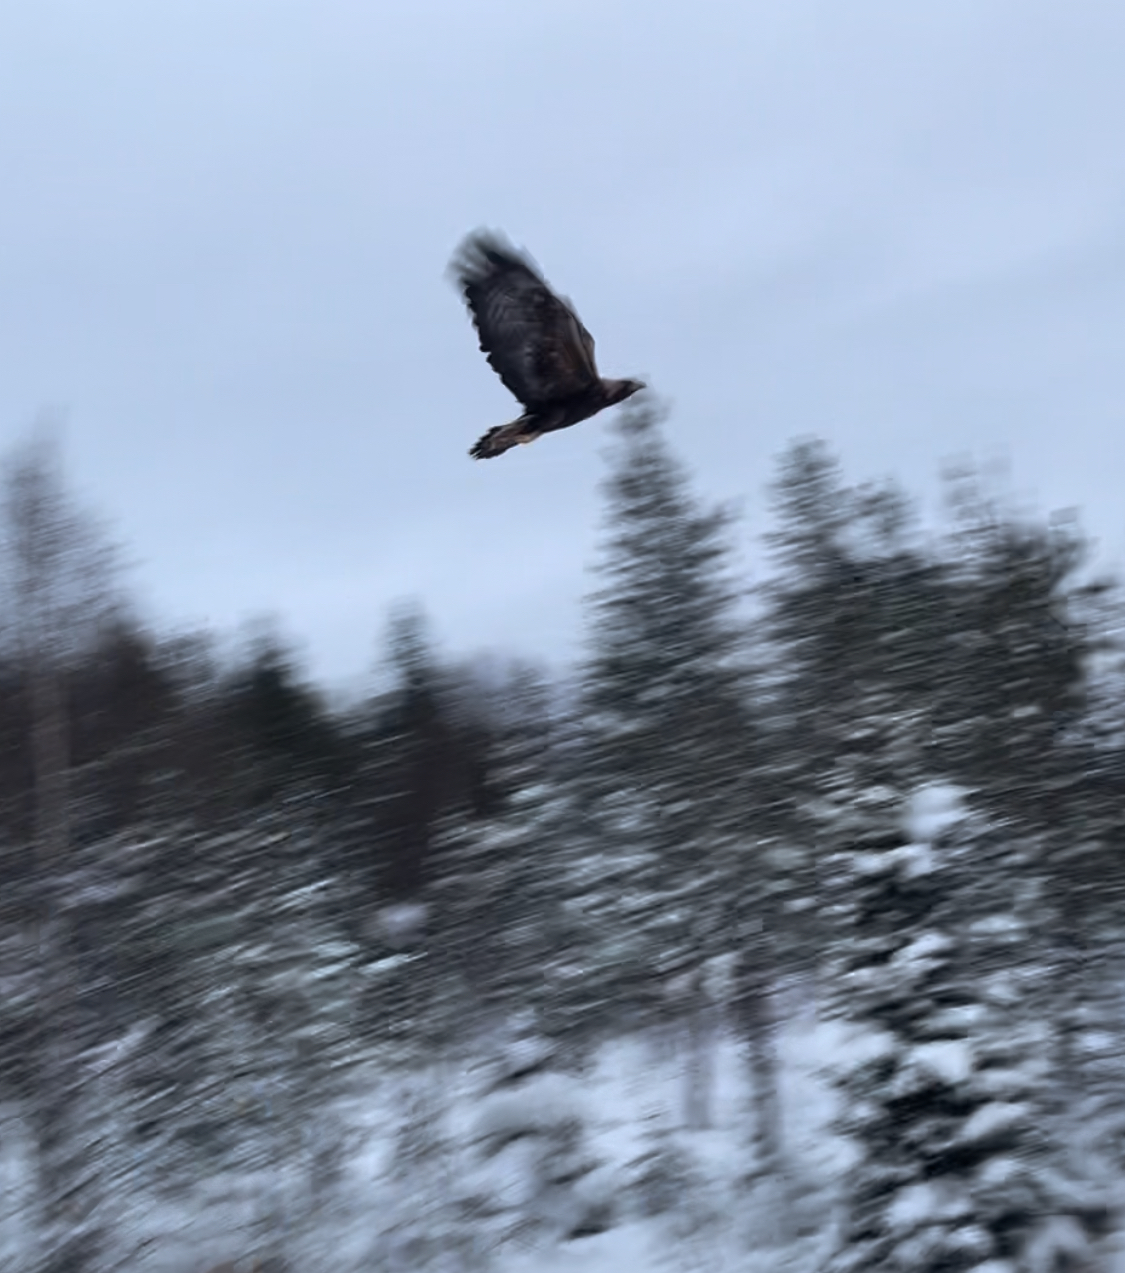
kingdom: Animalia
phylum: Chordata
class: Aves
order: Accipitriformes
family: Accipitridae
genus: Aquila
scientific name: Aquila chrysaetos
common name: Golden eagle
